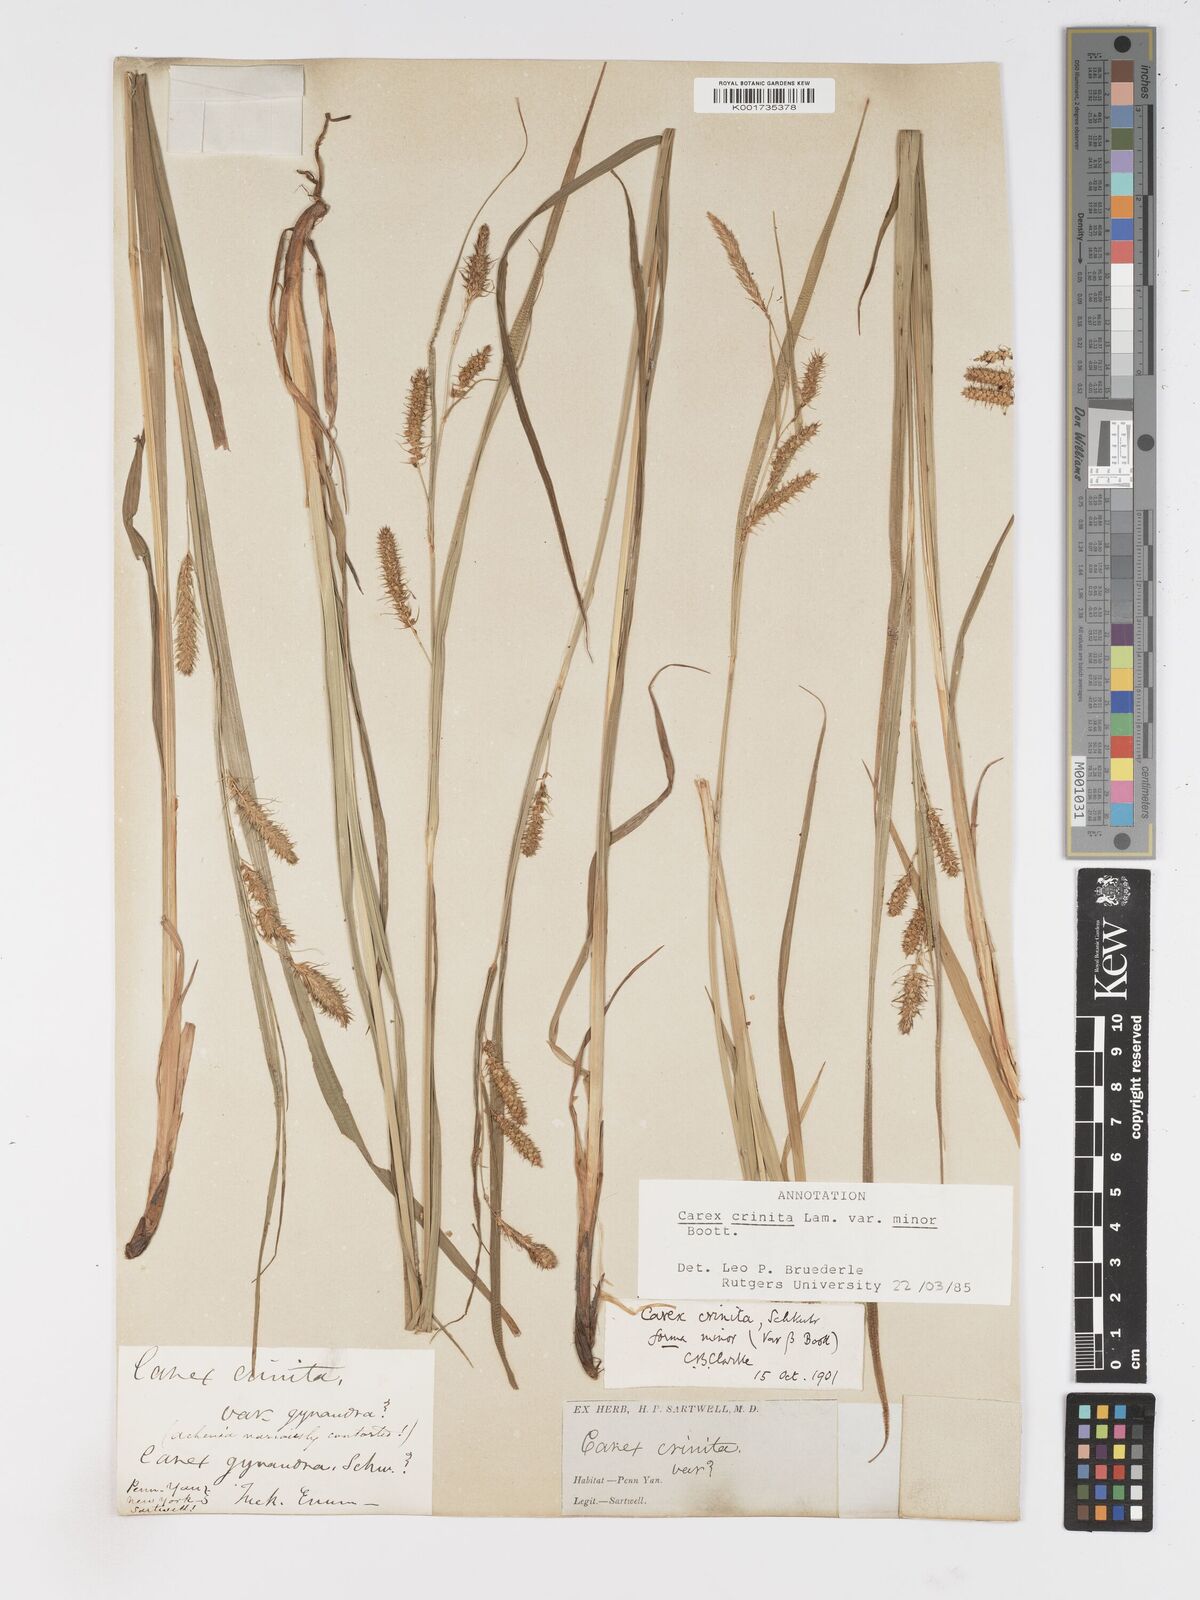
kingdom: Plantae
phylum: Tracheophyta
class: Liliopsida
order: Poales
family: Cyperaceae
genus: Carex
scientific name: Carex crinita
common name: Fringed sedge
